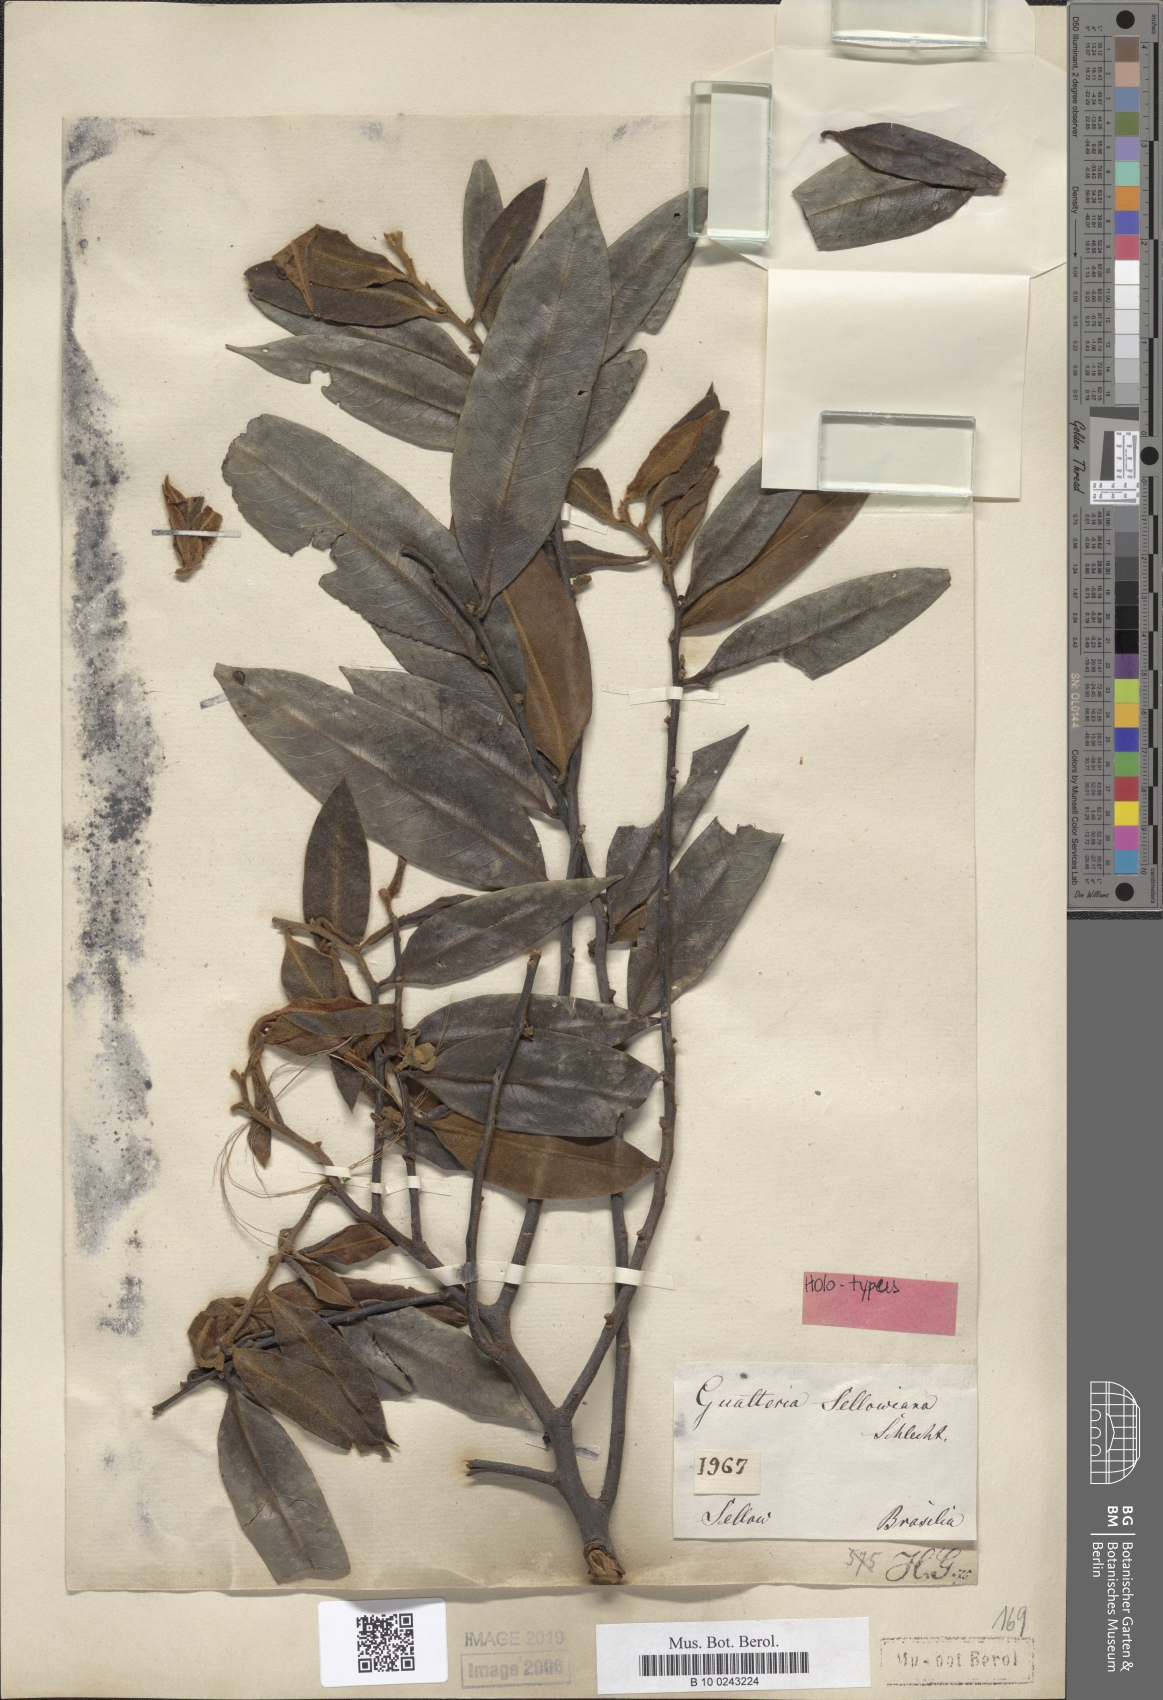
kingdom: Plantae
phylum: Tracheophyta
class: Magnoliopsida
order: Magnoliales
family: Annonaceae
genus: Guatteria
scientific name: Guatteria sellowiana
